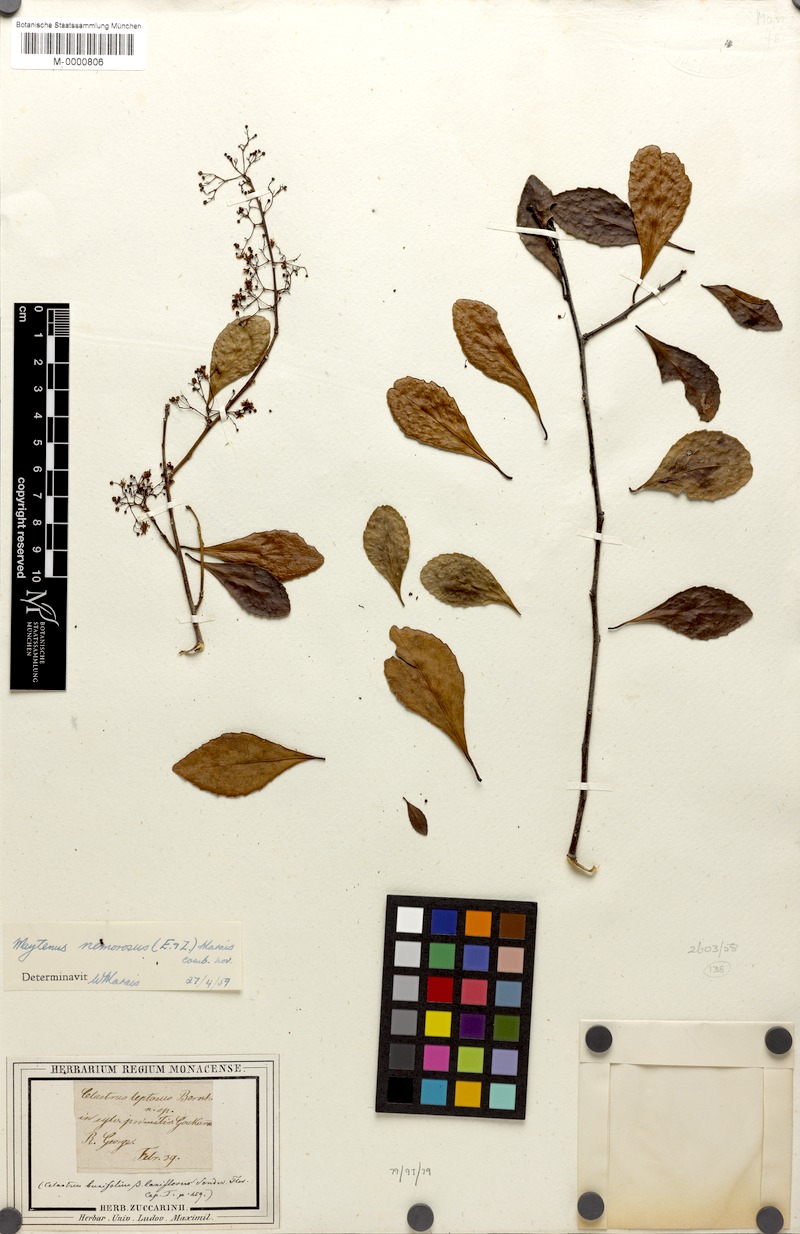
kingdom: Plantae
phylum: Tracheophyta
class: Magnoliopsida
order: Celastrales
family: Celastraceae
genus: Gymnosporia
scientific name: Gymnosporia nemorosa
